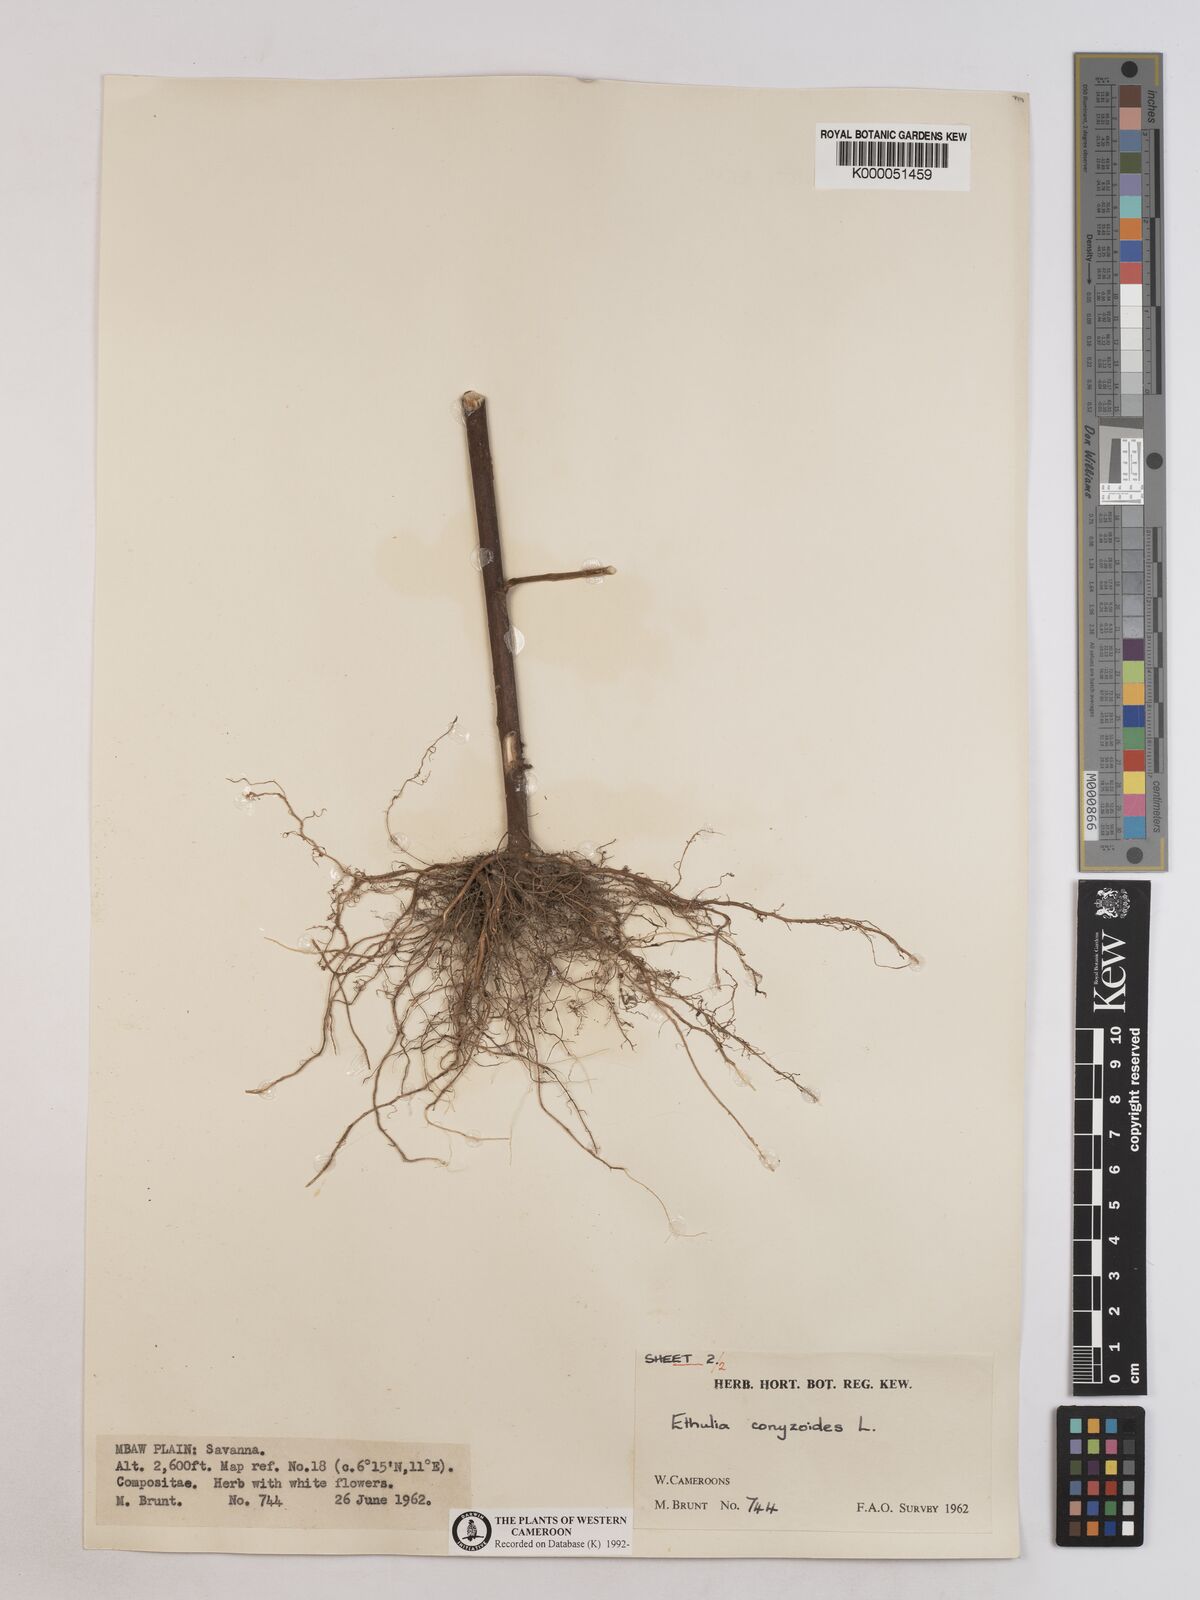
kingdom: Plantae
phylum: Tracheophyta
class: Magnoliopsida
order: Asterales
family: Asteraceae
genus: Ethulia
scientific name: Ethulia conyzoides
